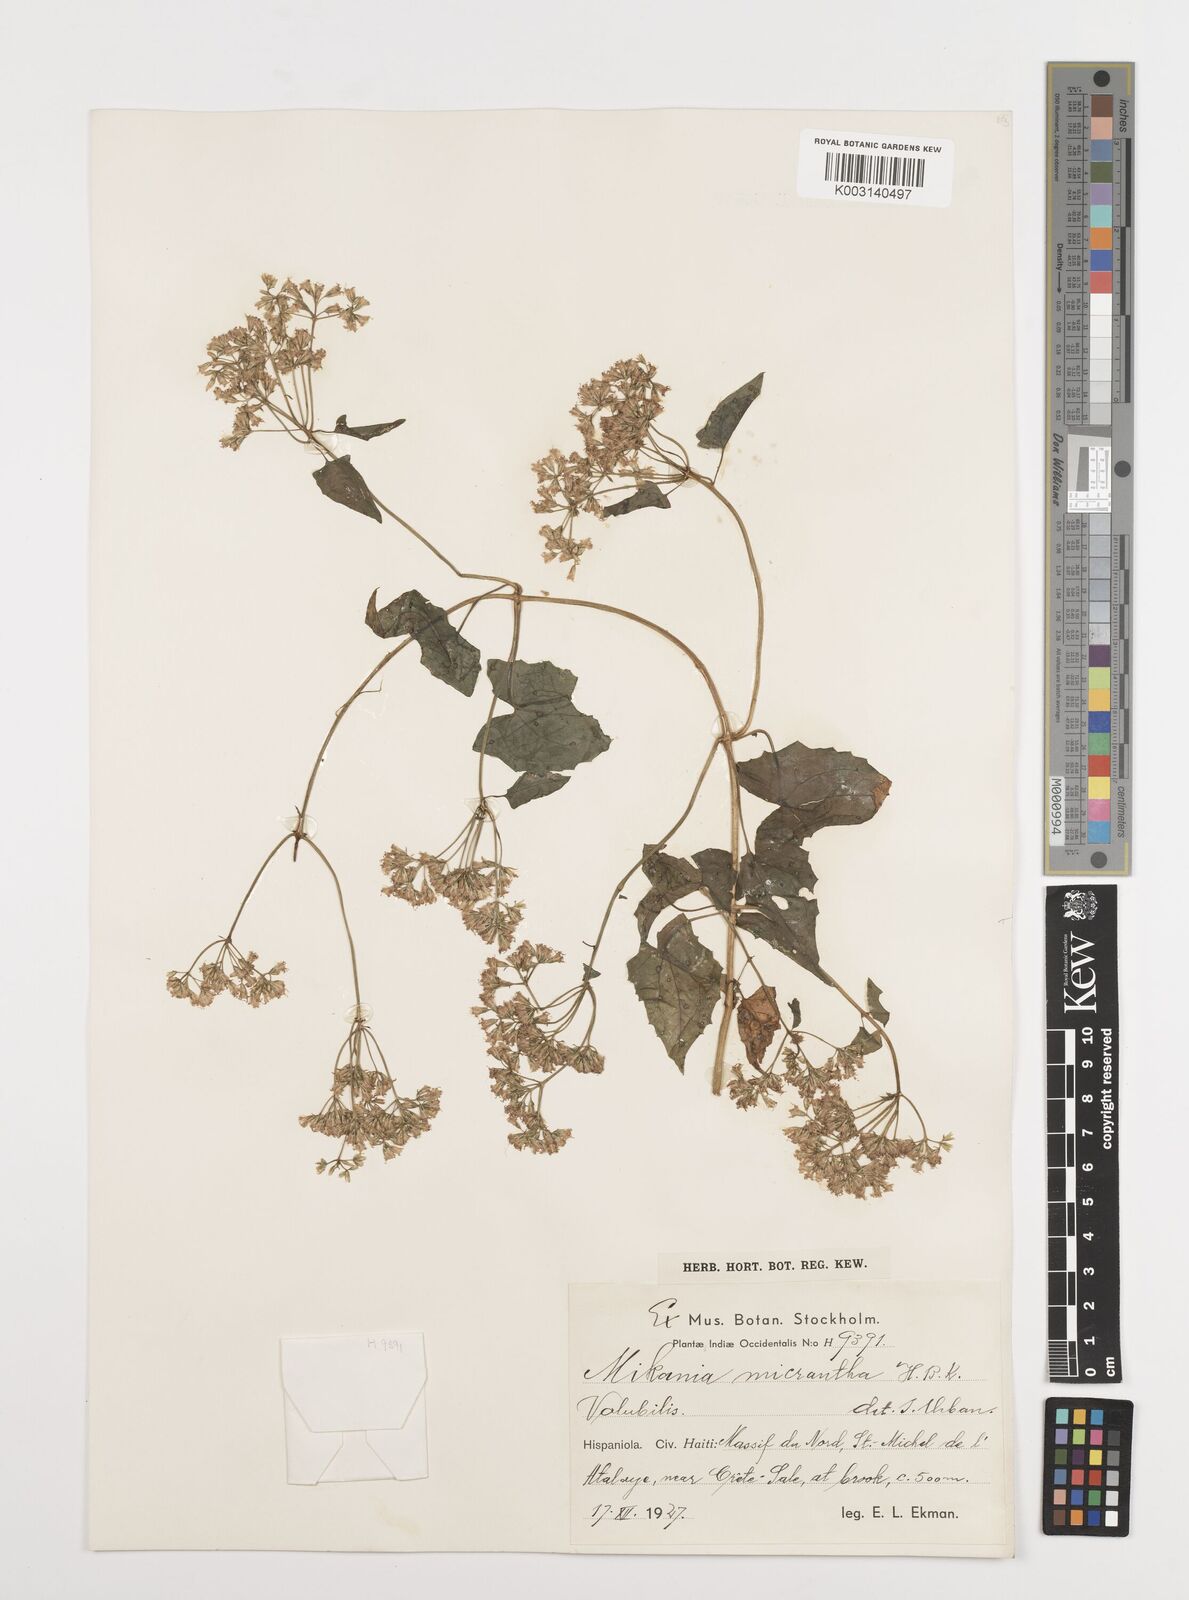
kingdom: Plantae
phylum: Tracheophyta
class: Magnoliopsida
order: Asterales
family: Asteraceae
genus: Mikania
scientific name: Mikania micrantha
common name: Mile-a-minute
